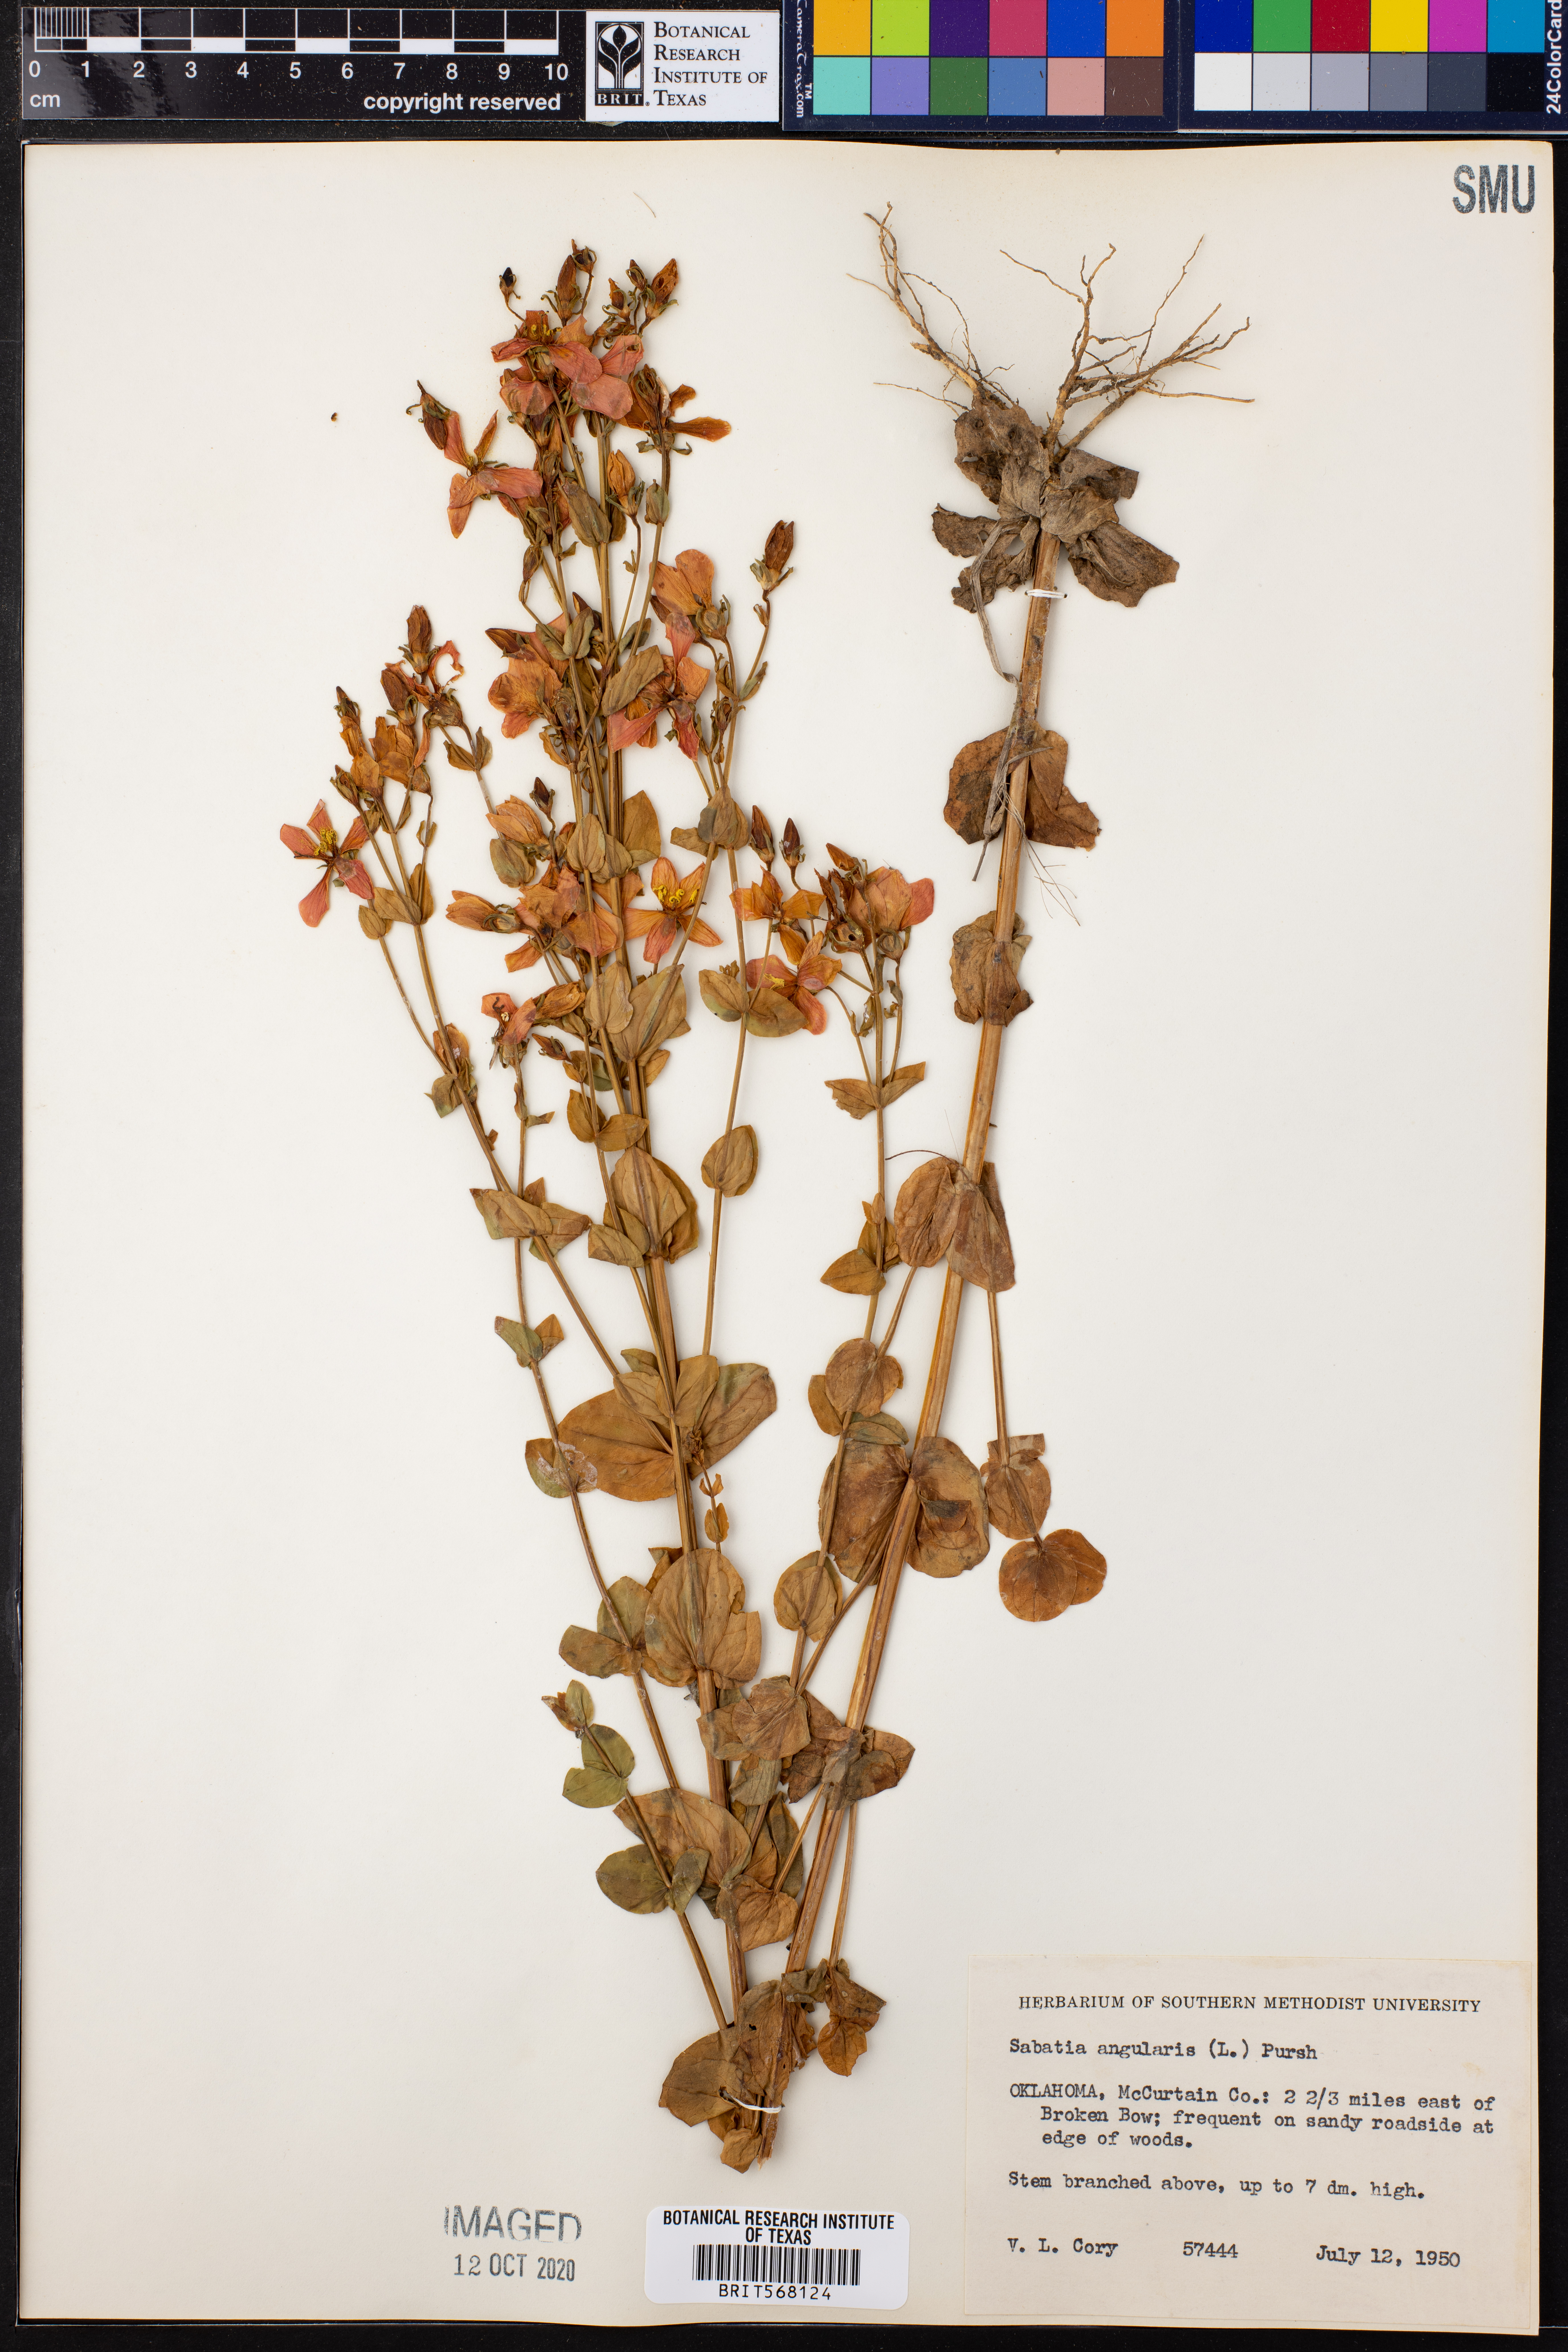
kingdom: Plantae
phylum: Tracheophyta
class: Magnoliopsida
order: Gentianales
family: Gentianaceae
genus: Sabatia
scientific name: Sabatia angularis
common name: Rose-pink
